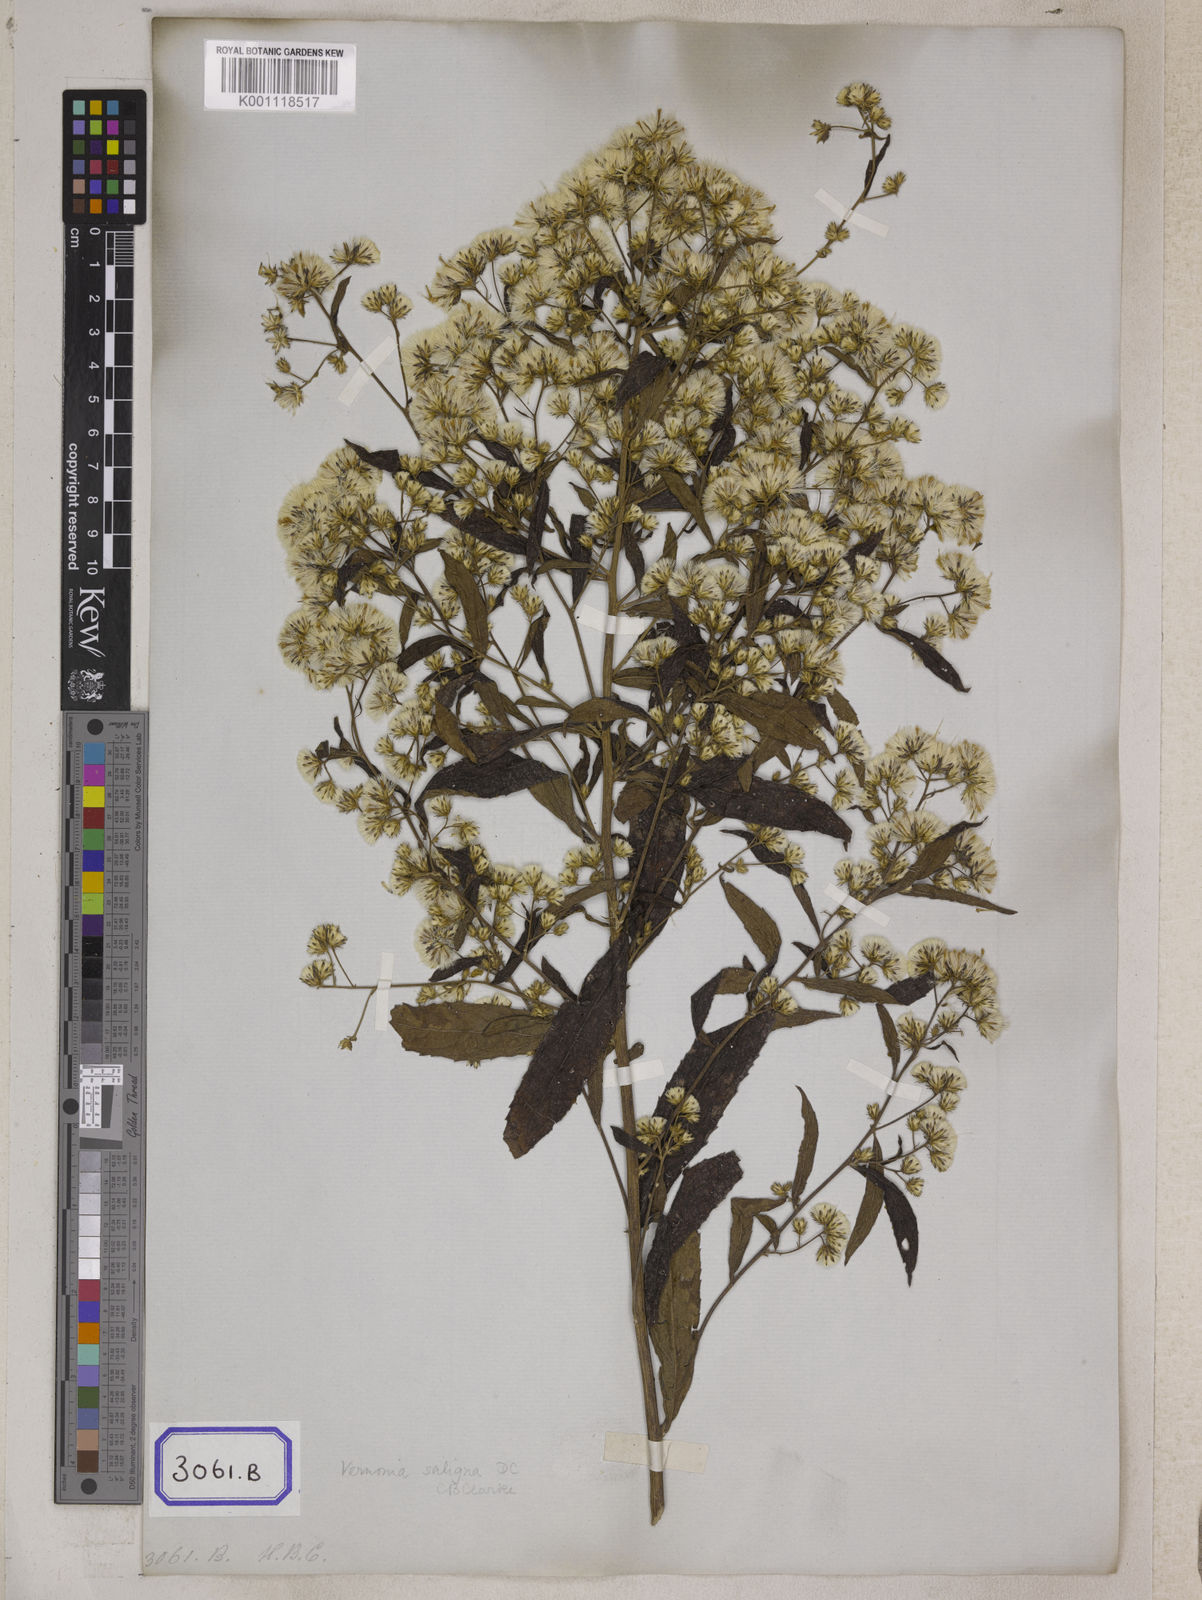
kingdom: Plantae
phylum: Tracheophyta
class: Magnoliopsida
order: Asterales
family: Asteraceae
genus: Acilepis
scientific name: Acilepis saligna
